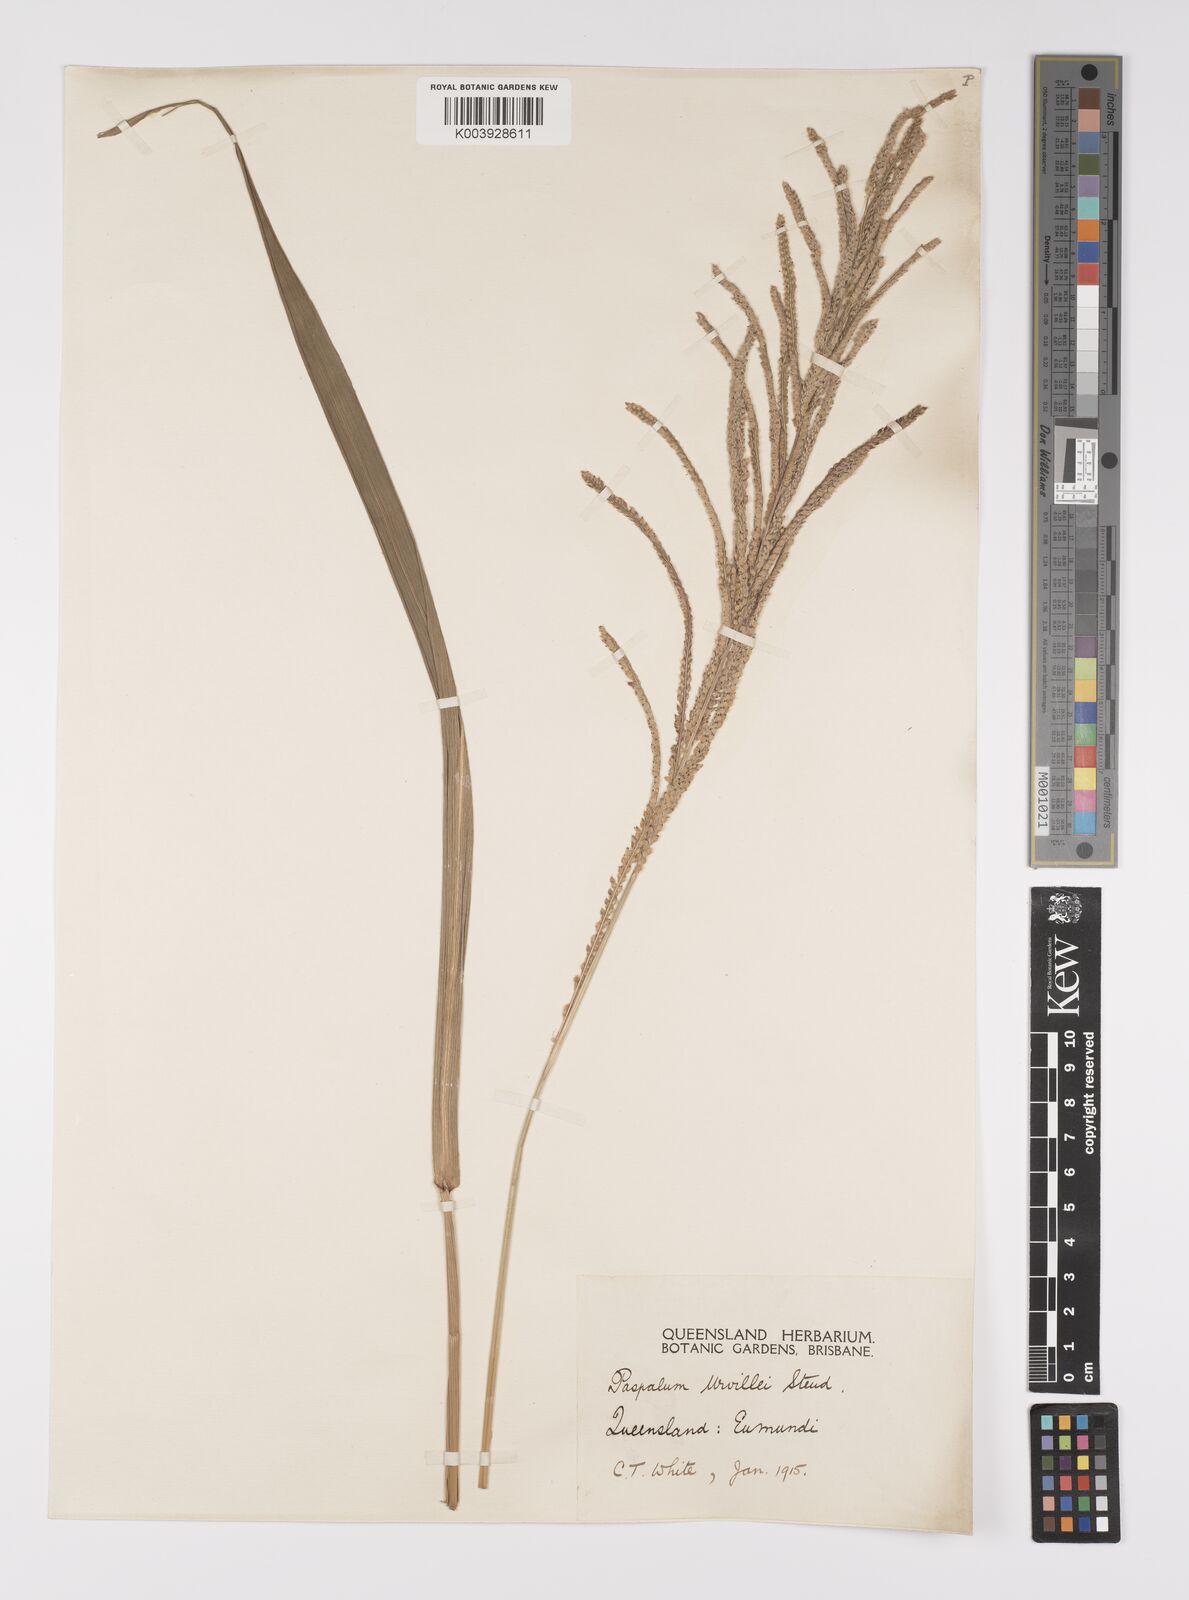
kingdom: Plantae
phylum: Tracheophyta
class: Liliopsida
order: Poales
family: Poaceae
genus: Paspalum
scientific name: Paspalum urvillei
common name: Vasey's grass
